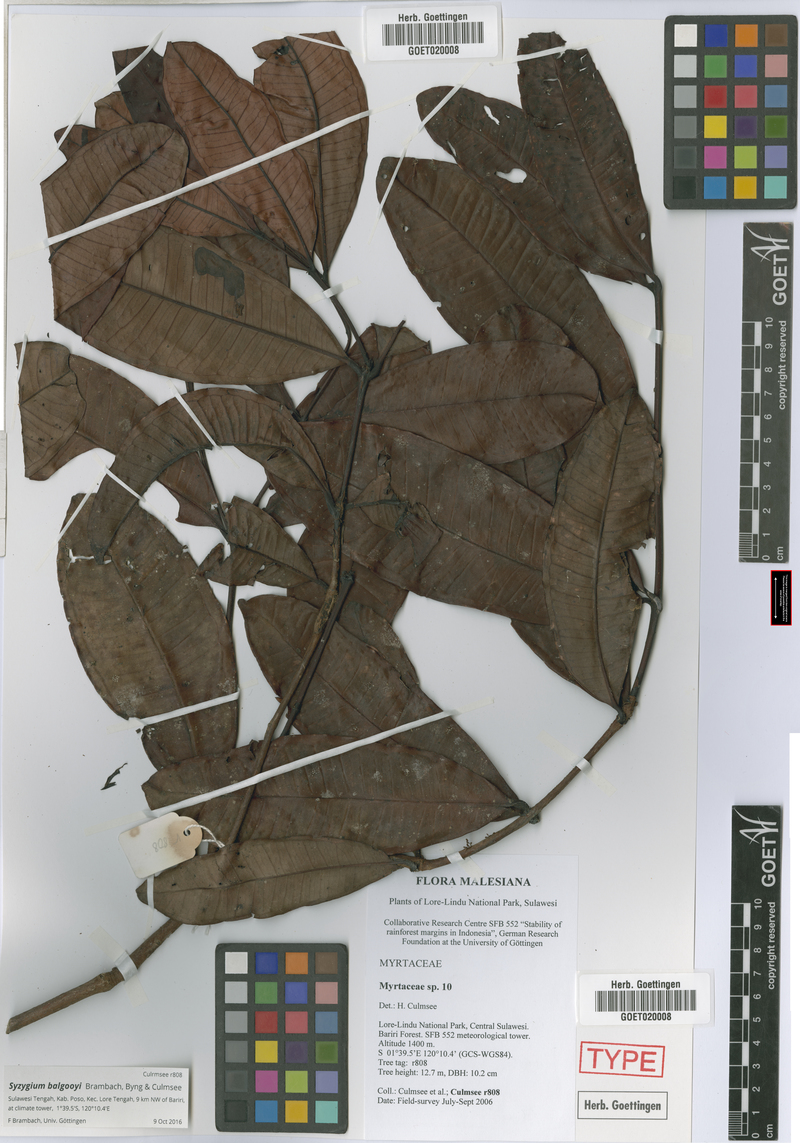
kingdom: Plantae
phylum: Tracheophyta
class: Magnoliopsida
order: Myrtales
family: Myrtaceae
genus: Syzygium
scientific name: Syzygium balgooyi
